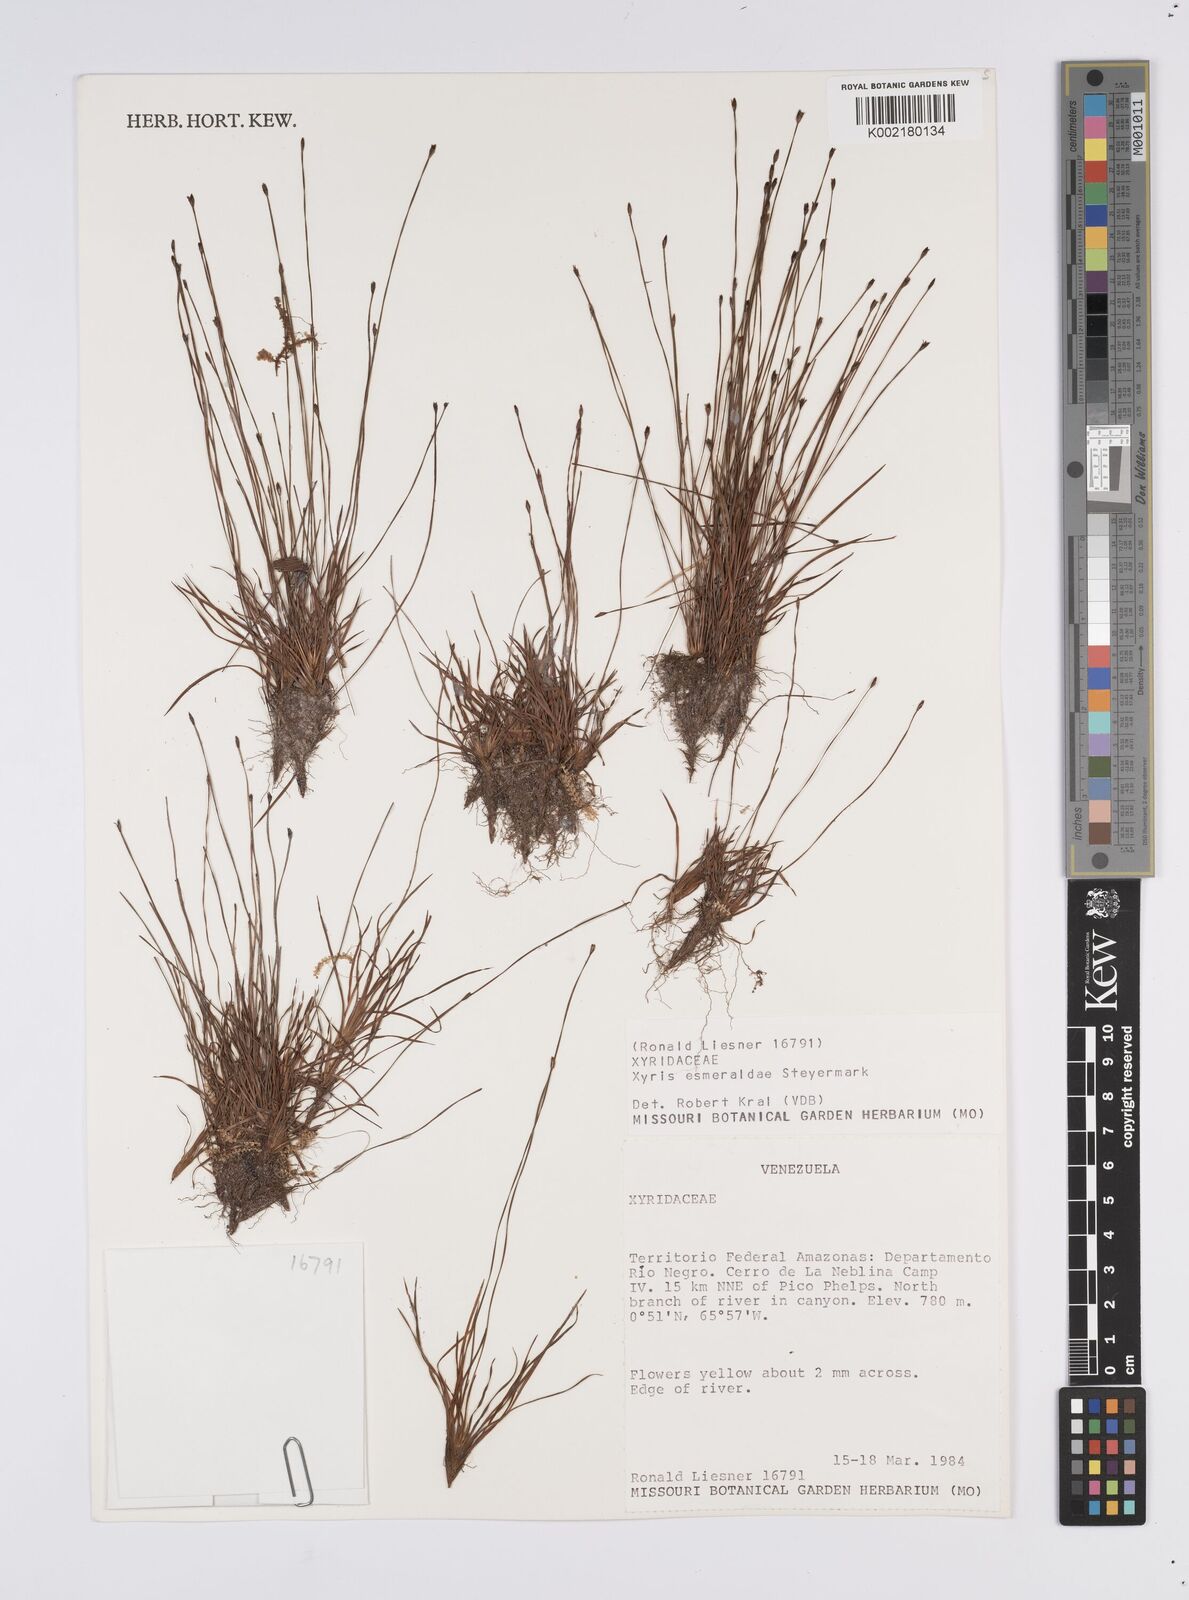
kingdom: Plantae
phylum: Tracheophyta
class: Liliopsida
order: Poales
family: Xyridaceae
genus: Xyris
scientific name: Xyris esmeraldae
